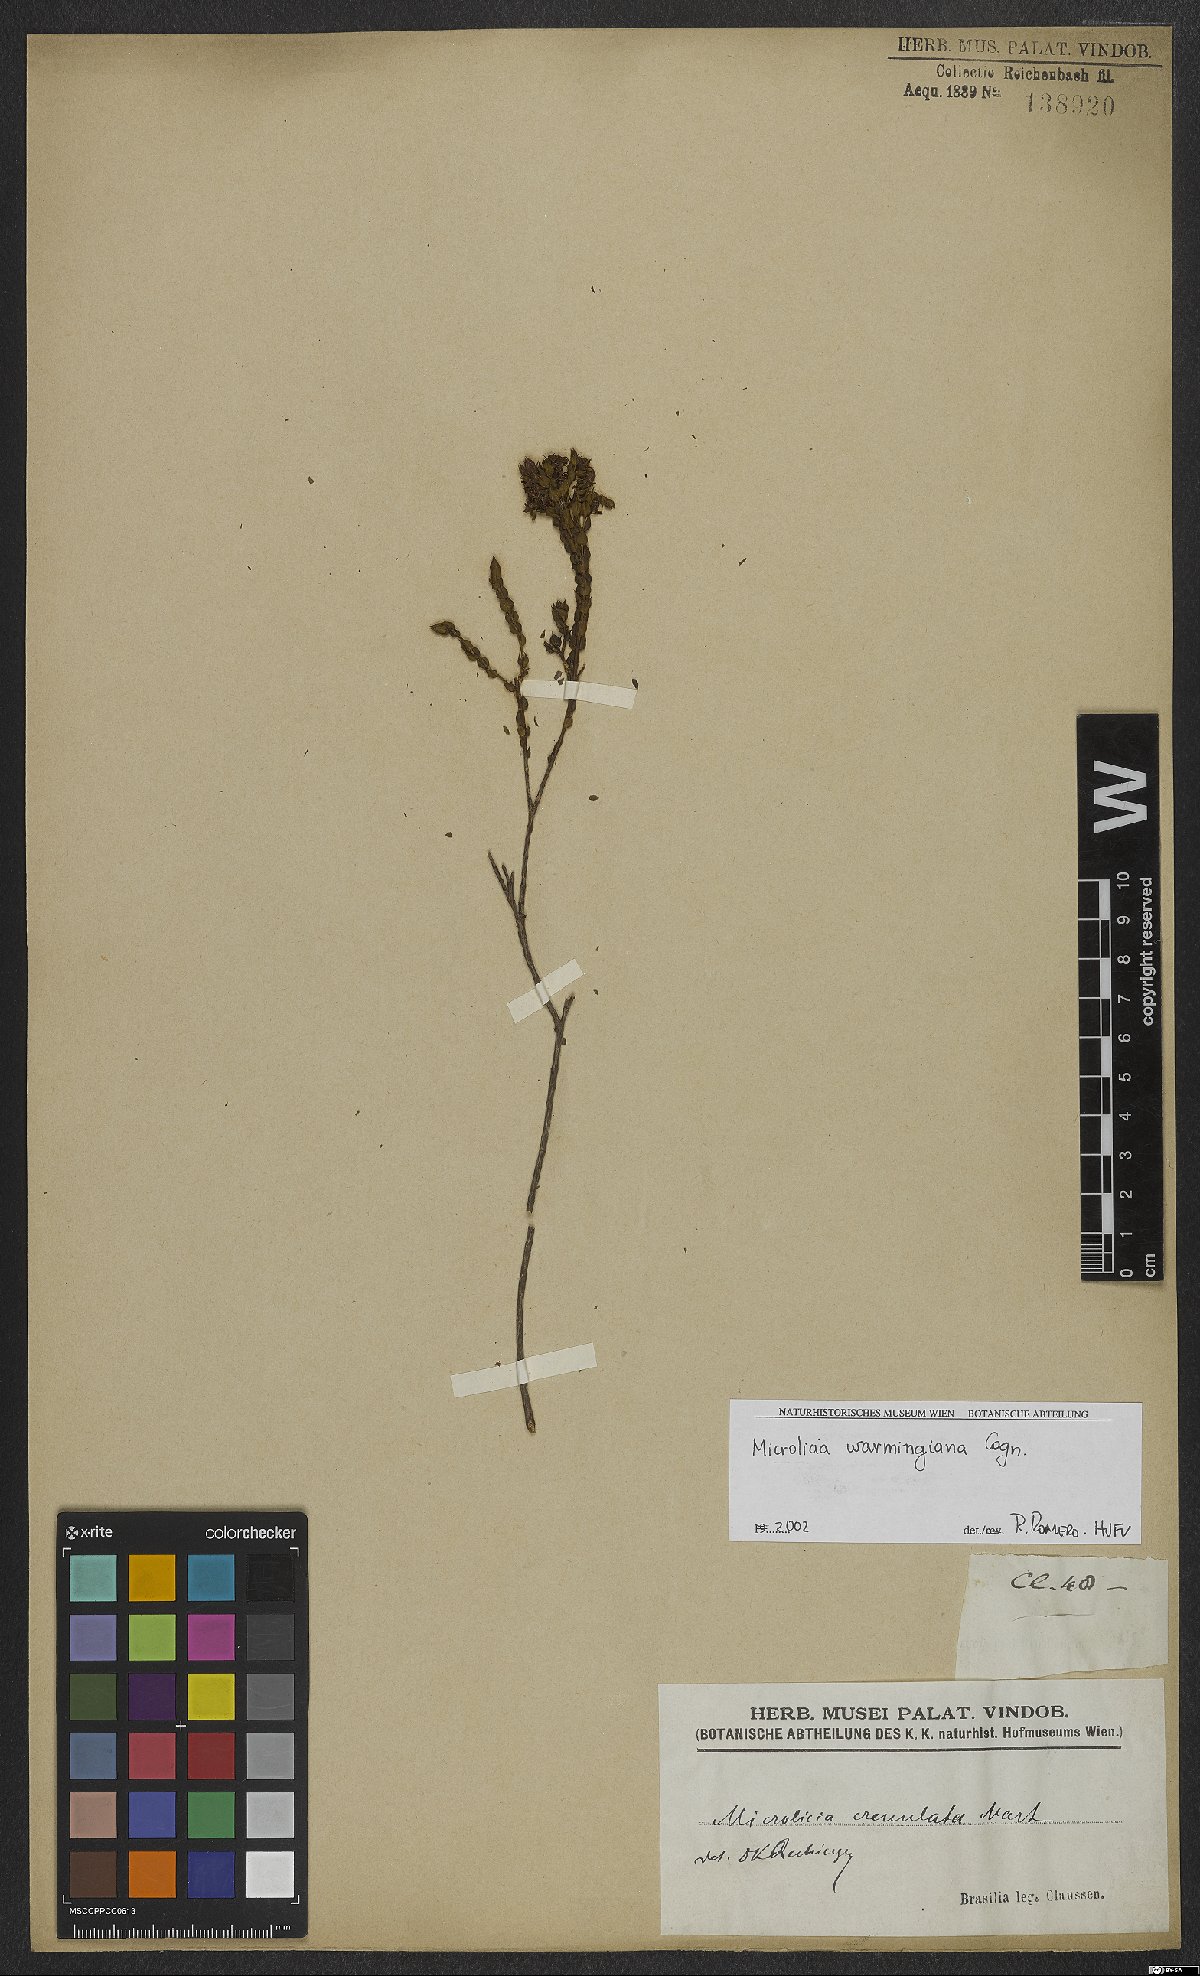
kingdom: Plantae
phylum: Tracheophyta
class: Magnoliopsida
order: Myrtales
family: Melastomataceae
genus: Microlicia
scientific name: Microlicia warmingiana
